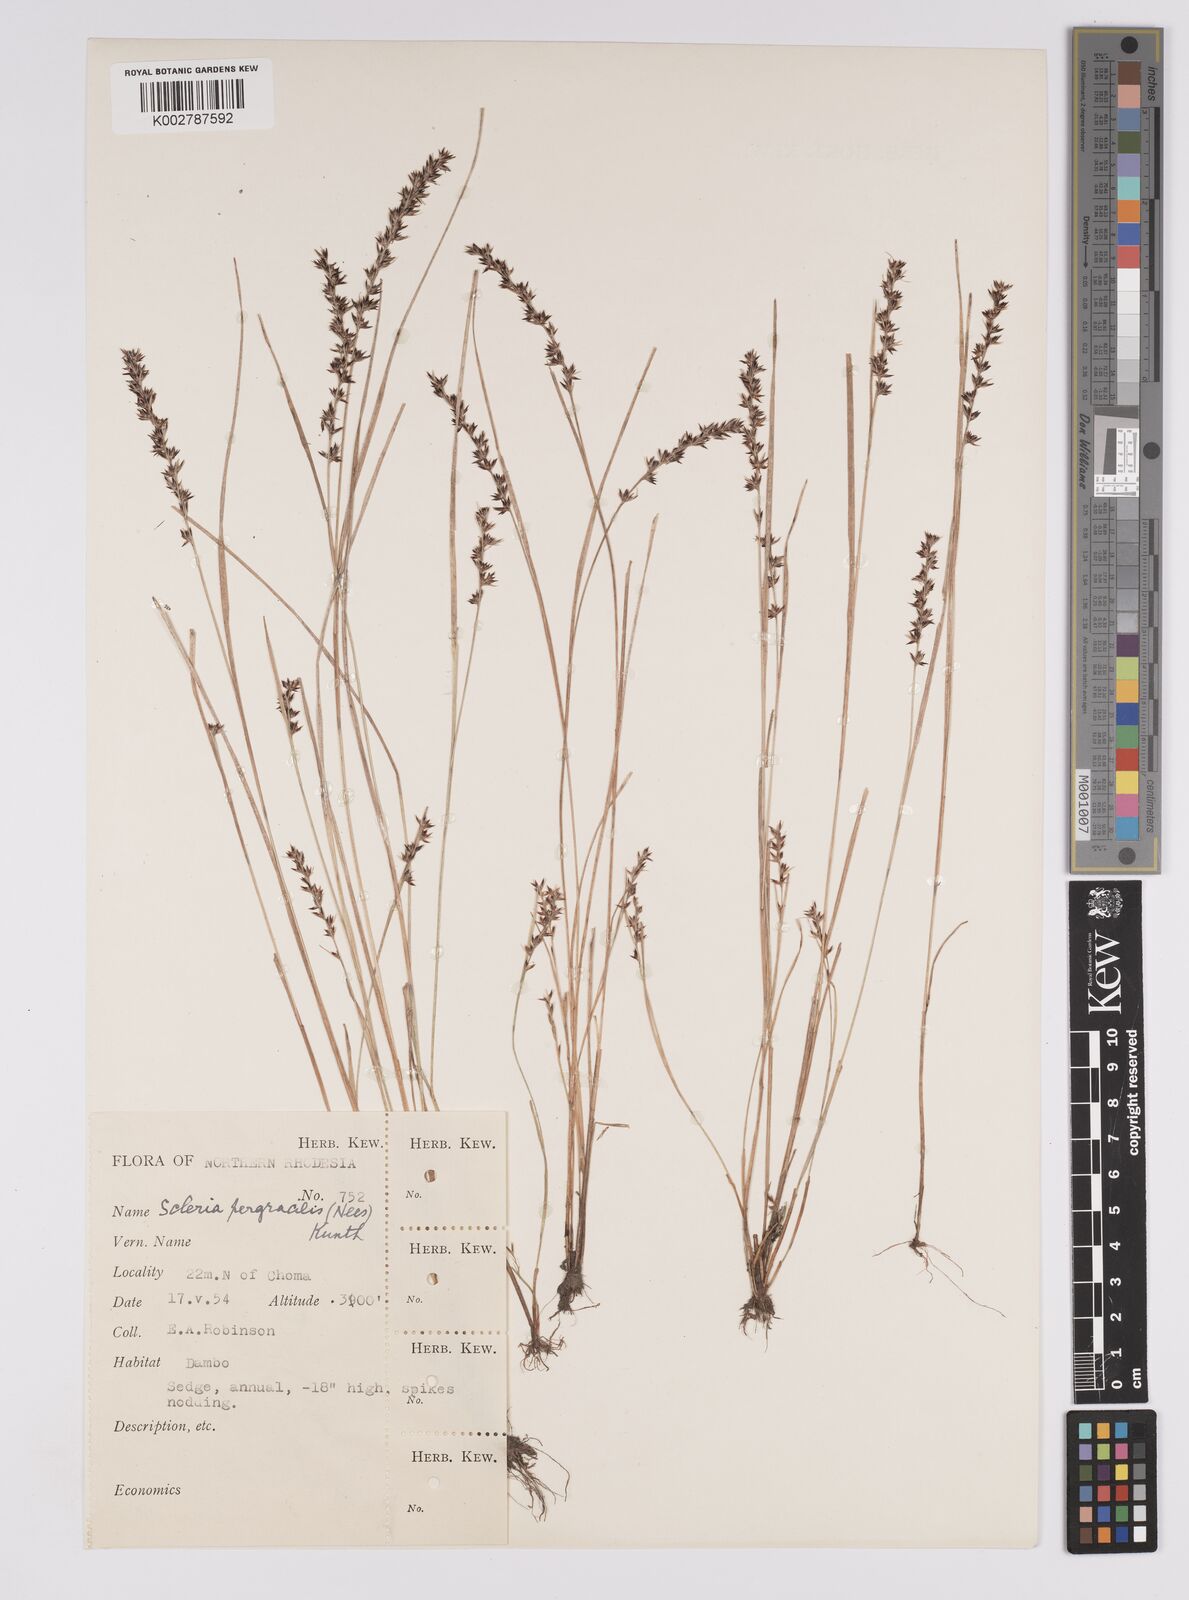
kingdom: Plantae
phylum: Tracheophyta
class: Liliopsida
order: Poales
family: Cyperaceae
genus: Scleria
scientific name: Scleria pergracilis
